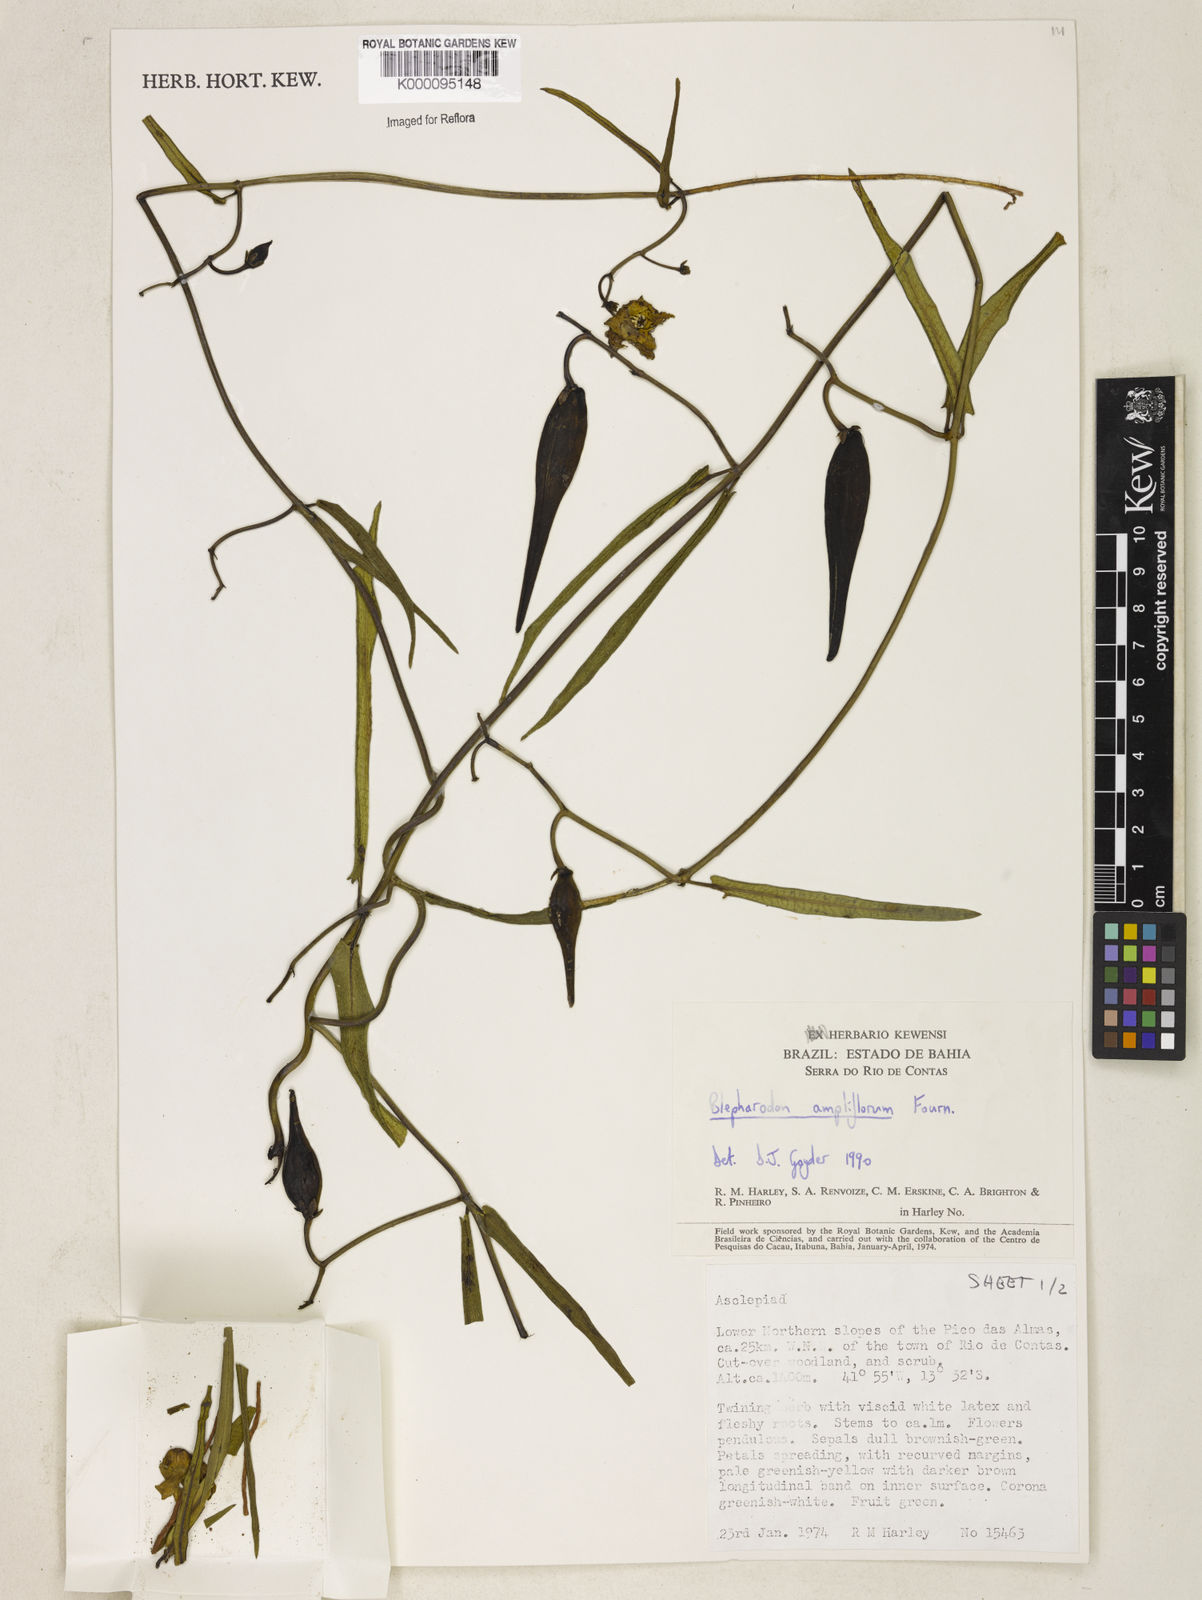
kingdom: Plantae
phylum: Tracheophyta
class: Magnoliopsida
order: Gentianales
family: Apocynaceae
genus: Blepharodon
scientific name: Blepharodon ampliflorum
